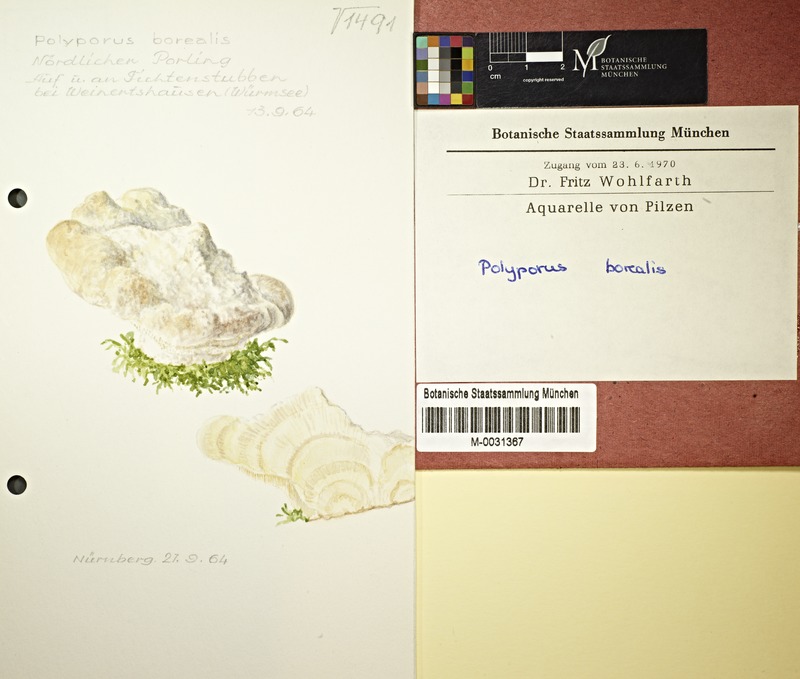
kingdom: Fungi
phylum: Basidiomycota
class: Agaricomycetes
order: Polyporales
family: Fomitopsidaceae
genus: Climacocystis
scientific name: Climacocystis borealis
